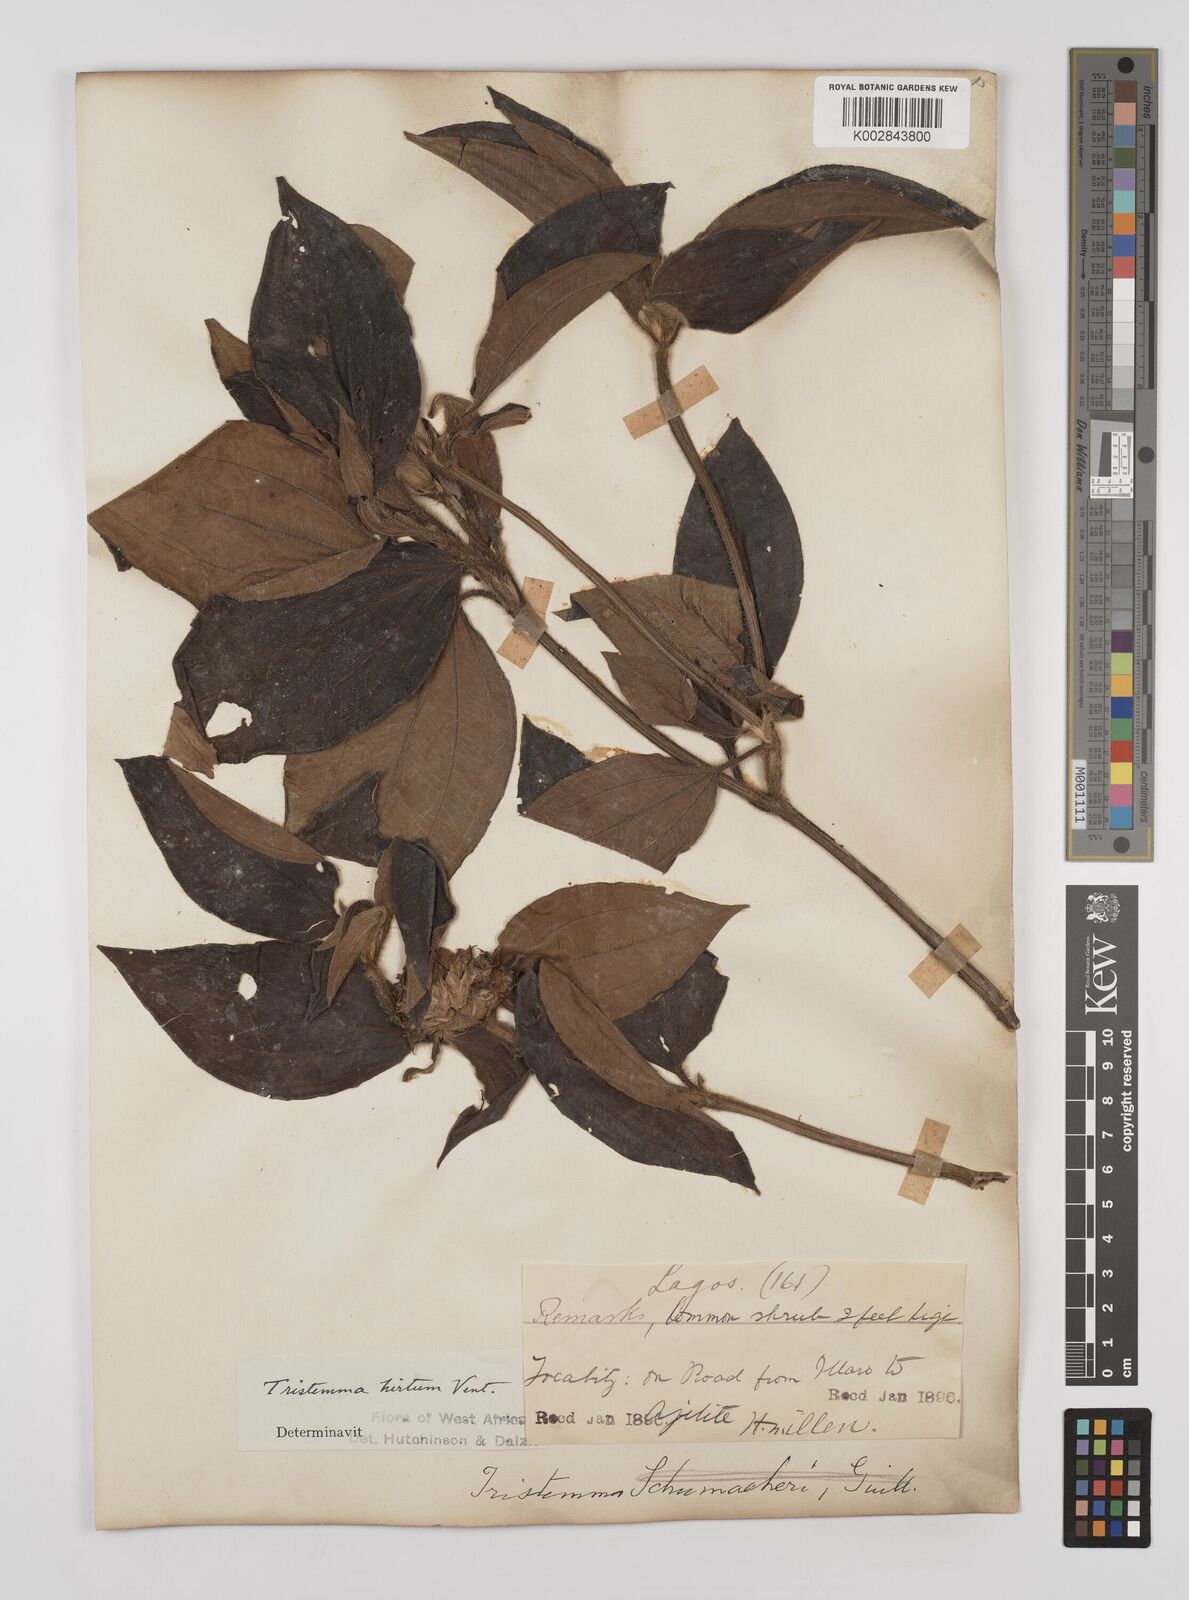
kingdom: Plantae
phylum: Tracheophyta
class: Magnoliopsida
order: Myrtales
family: Melastomataceae
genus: Tristemma
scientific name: Tristemma hirtum
